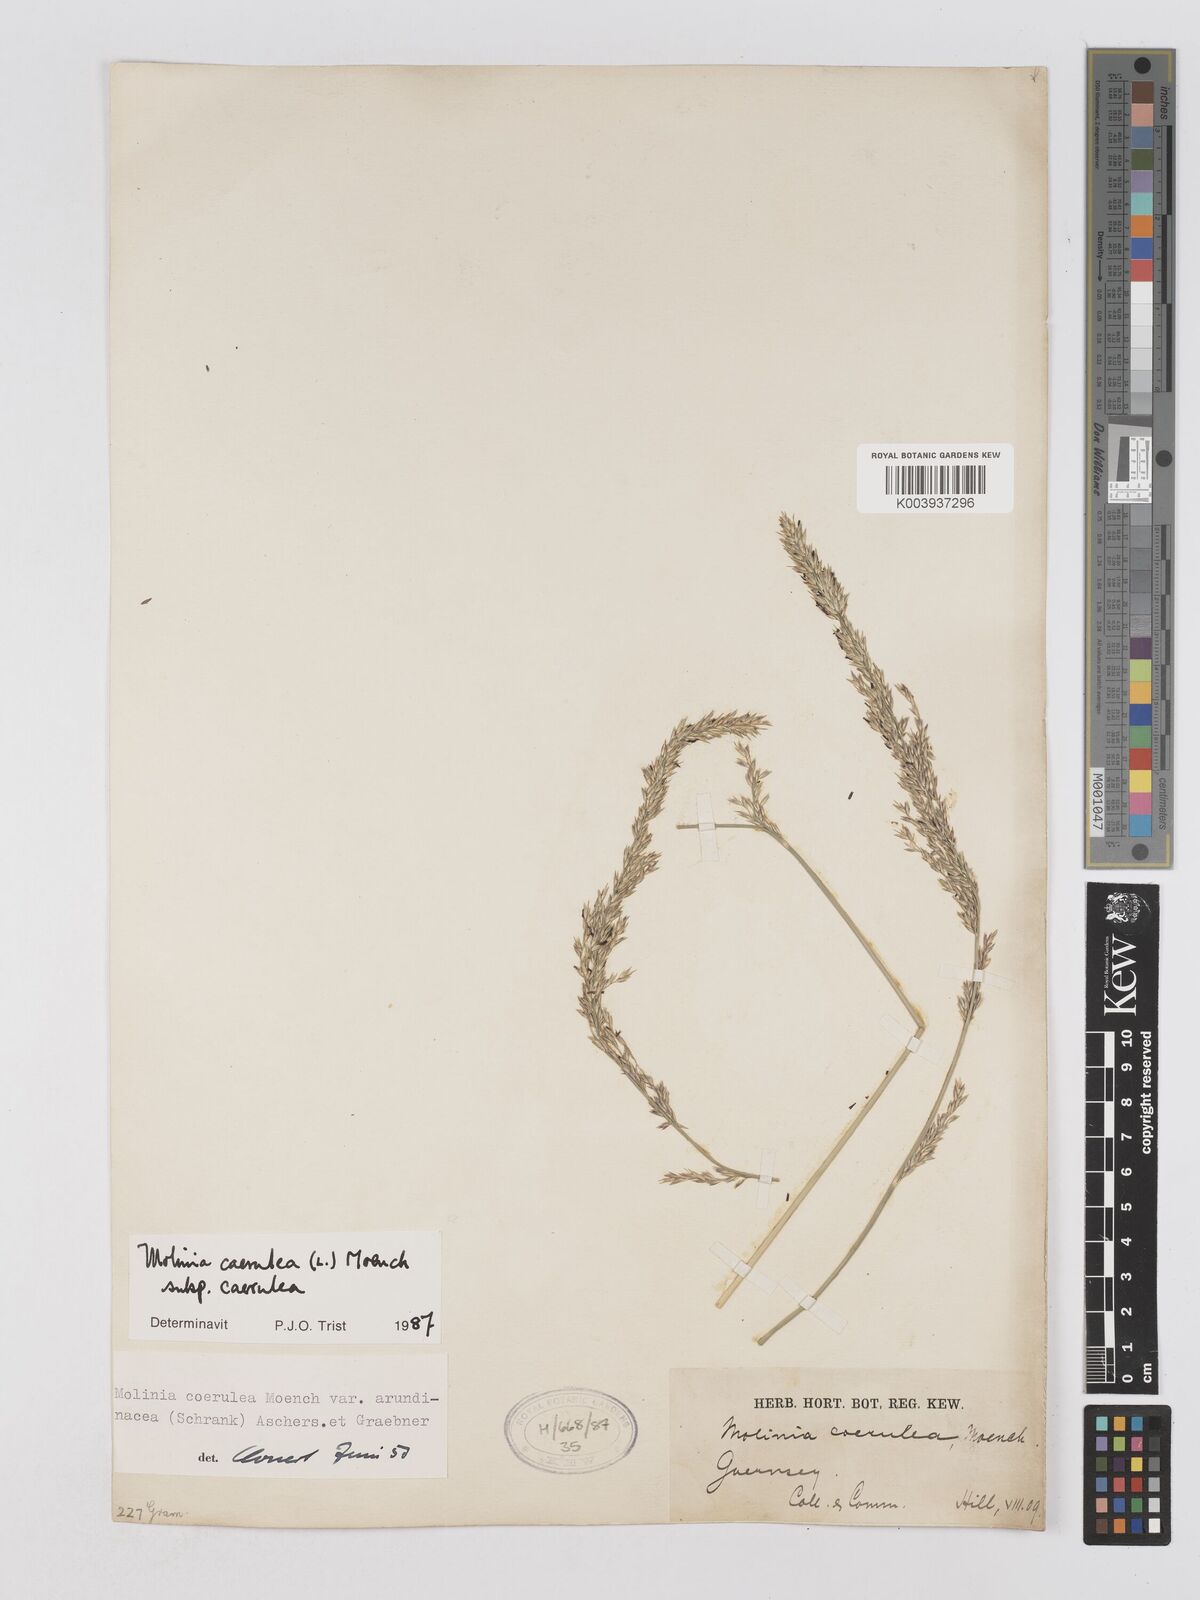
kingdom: Plantae
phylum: Tracheophyta
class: Liliopsida
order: Poales
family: Poaceae
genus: Molinia
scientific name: Molinia caerulea
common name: Purple moor-grass
